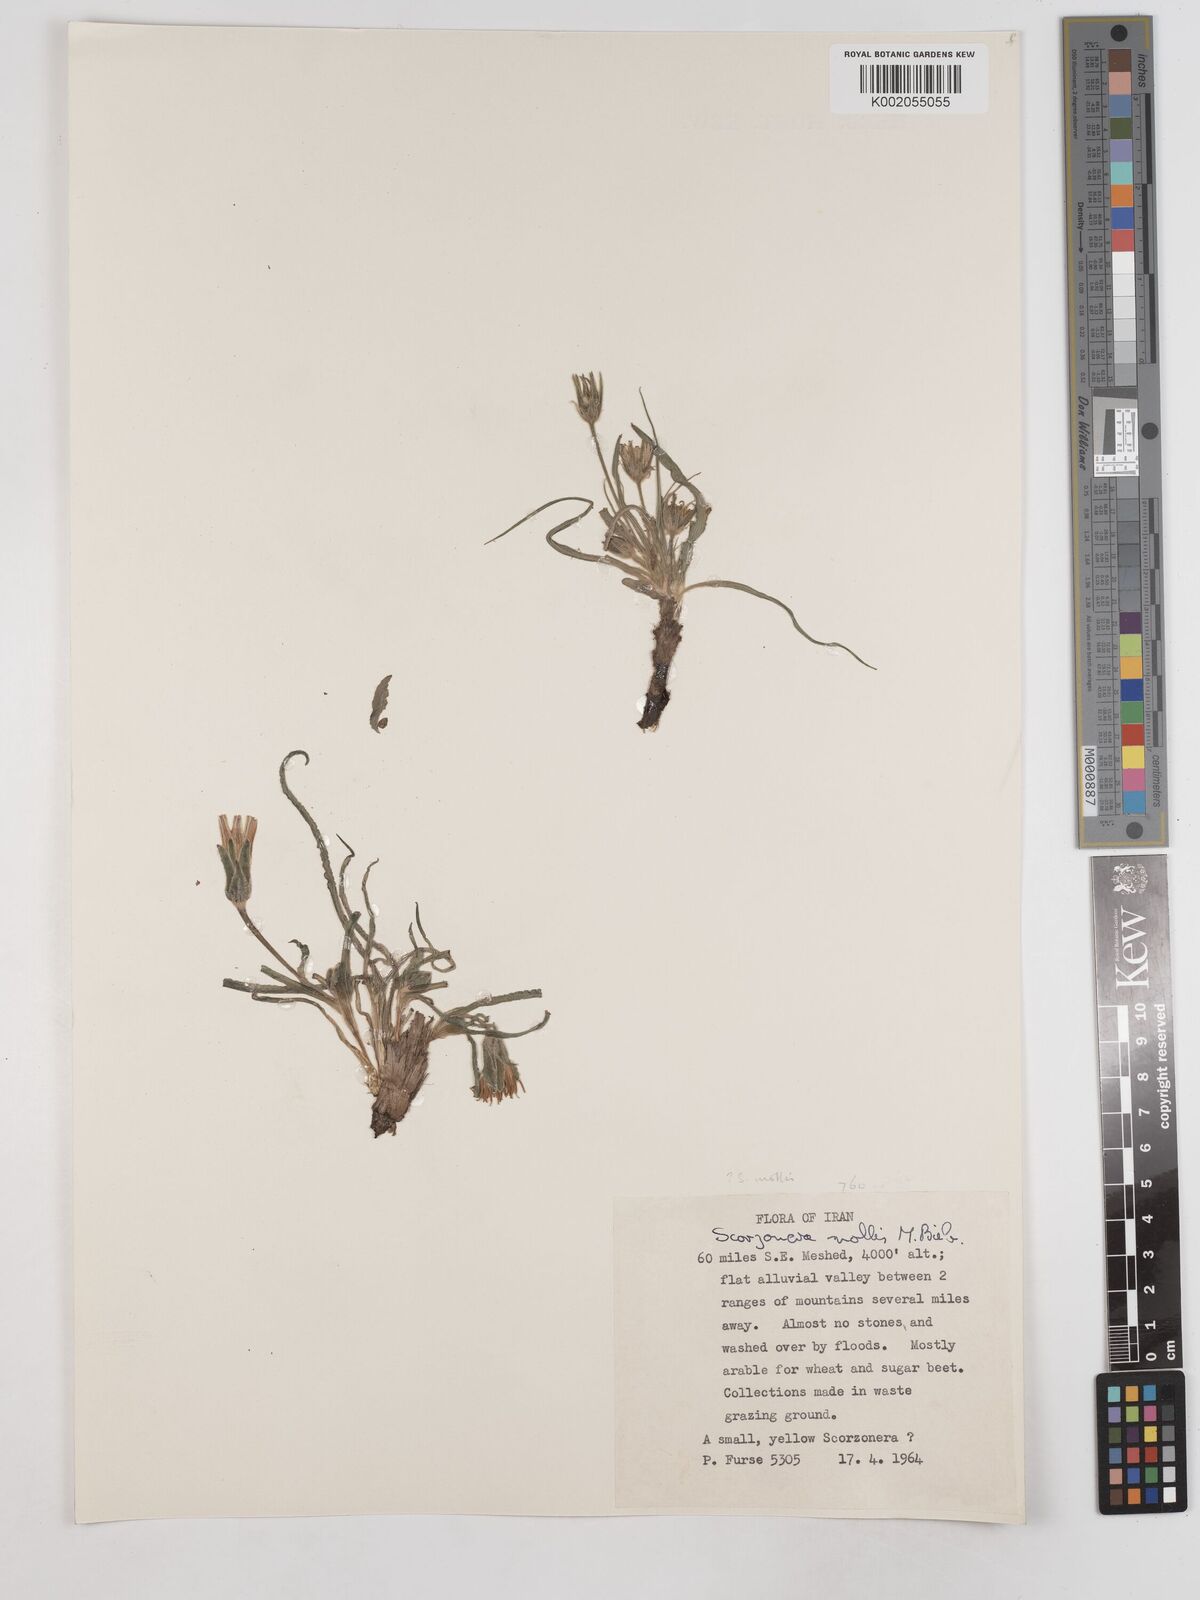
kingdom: Plantae
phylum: Tracheophyta
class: Magnoliopsida
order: Asterales
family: Asteraceae
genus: Candollea
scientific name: Candollea mollis
